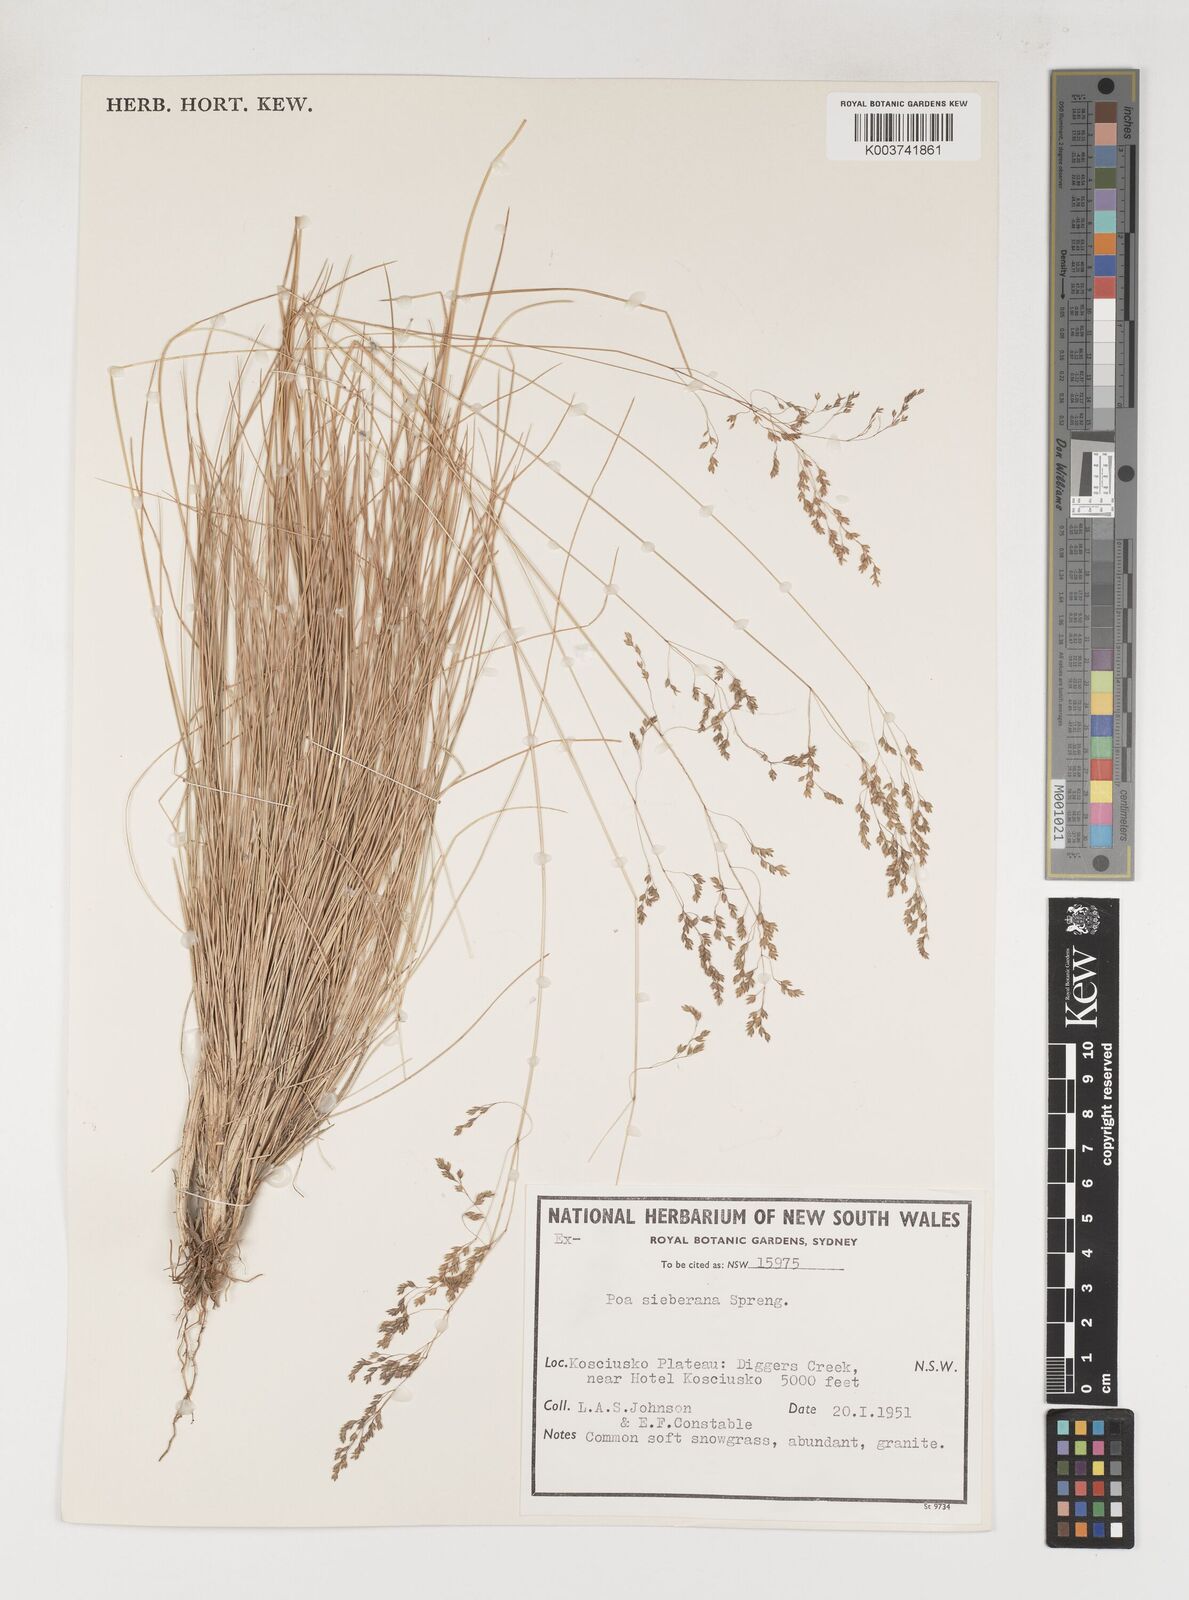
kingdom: Plantae
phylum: Tracheophyta
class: Liliopsida
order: Poales
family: Poaceae
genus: Poa
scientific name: Poa sieberiana
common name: Tussock poa
